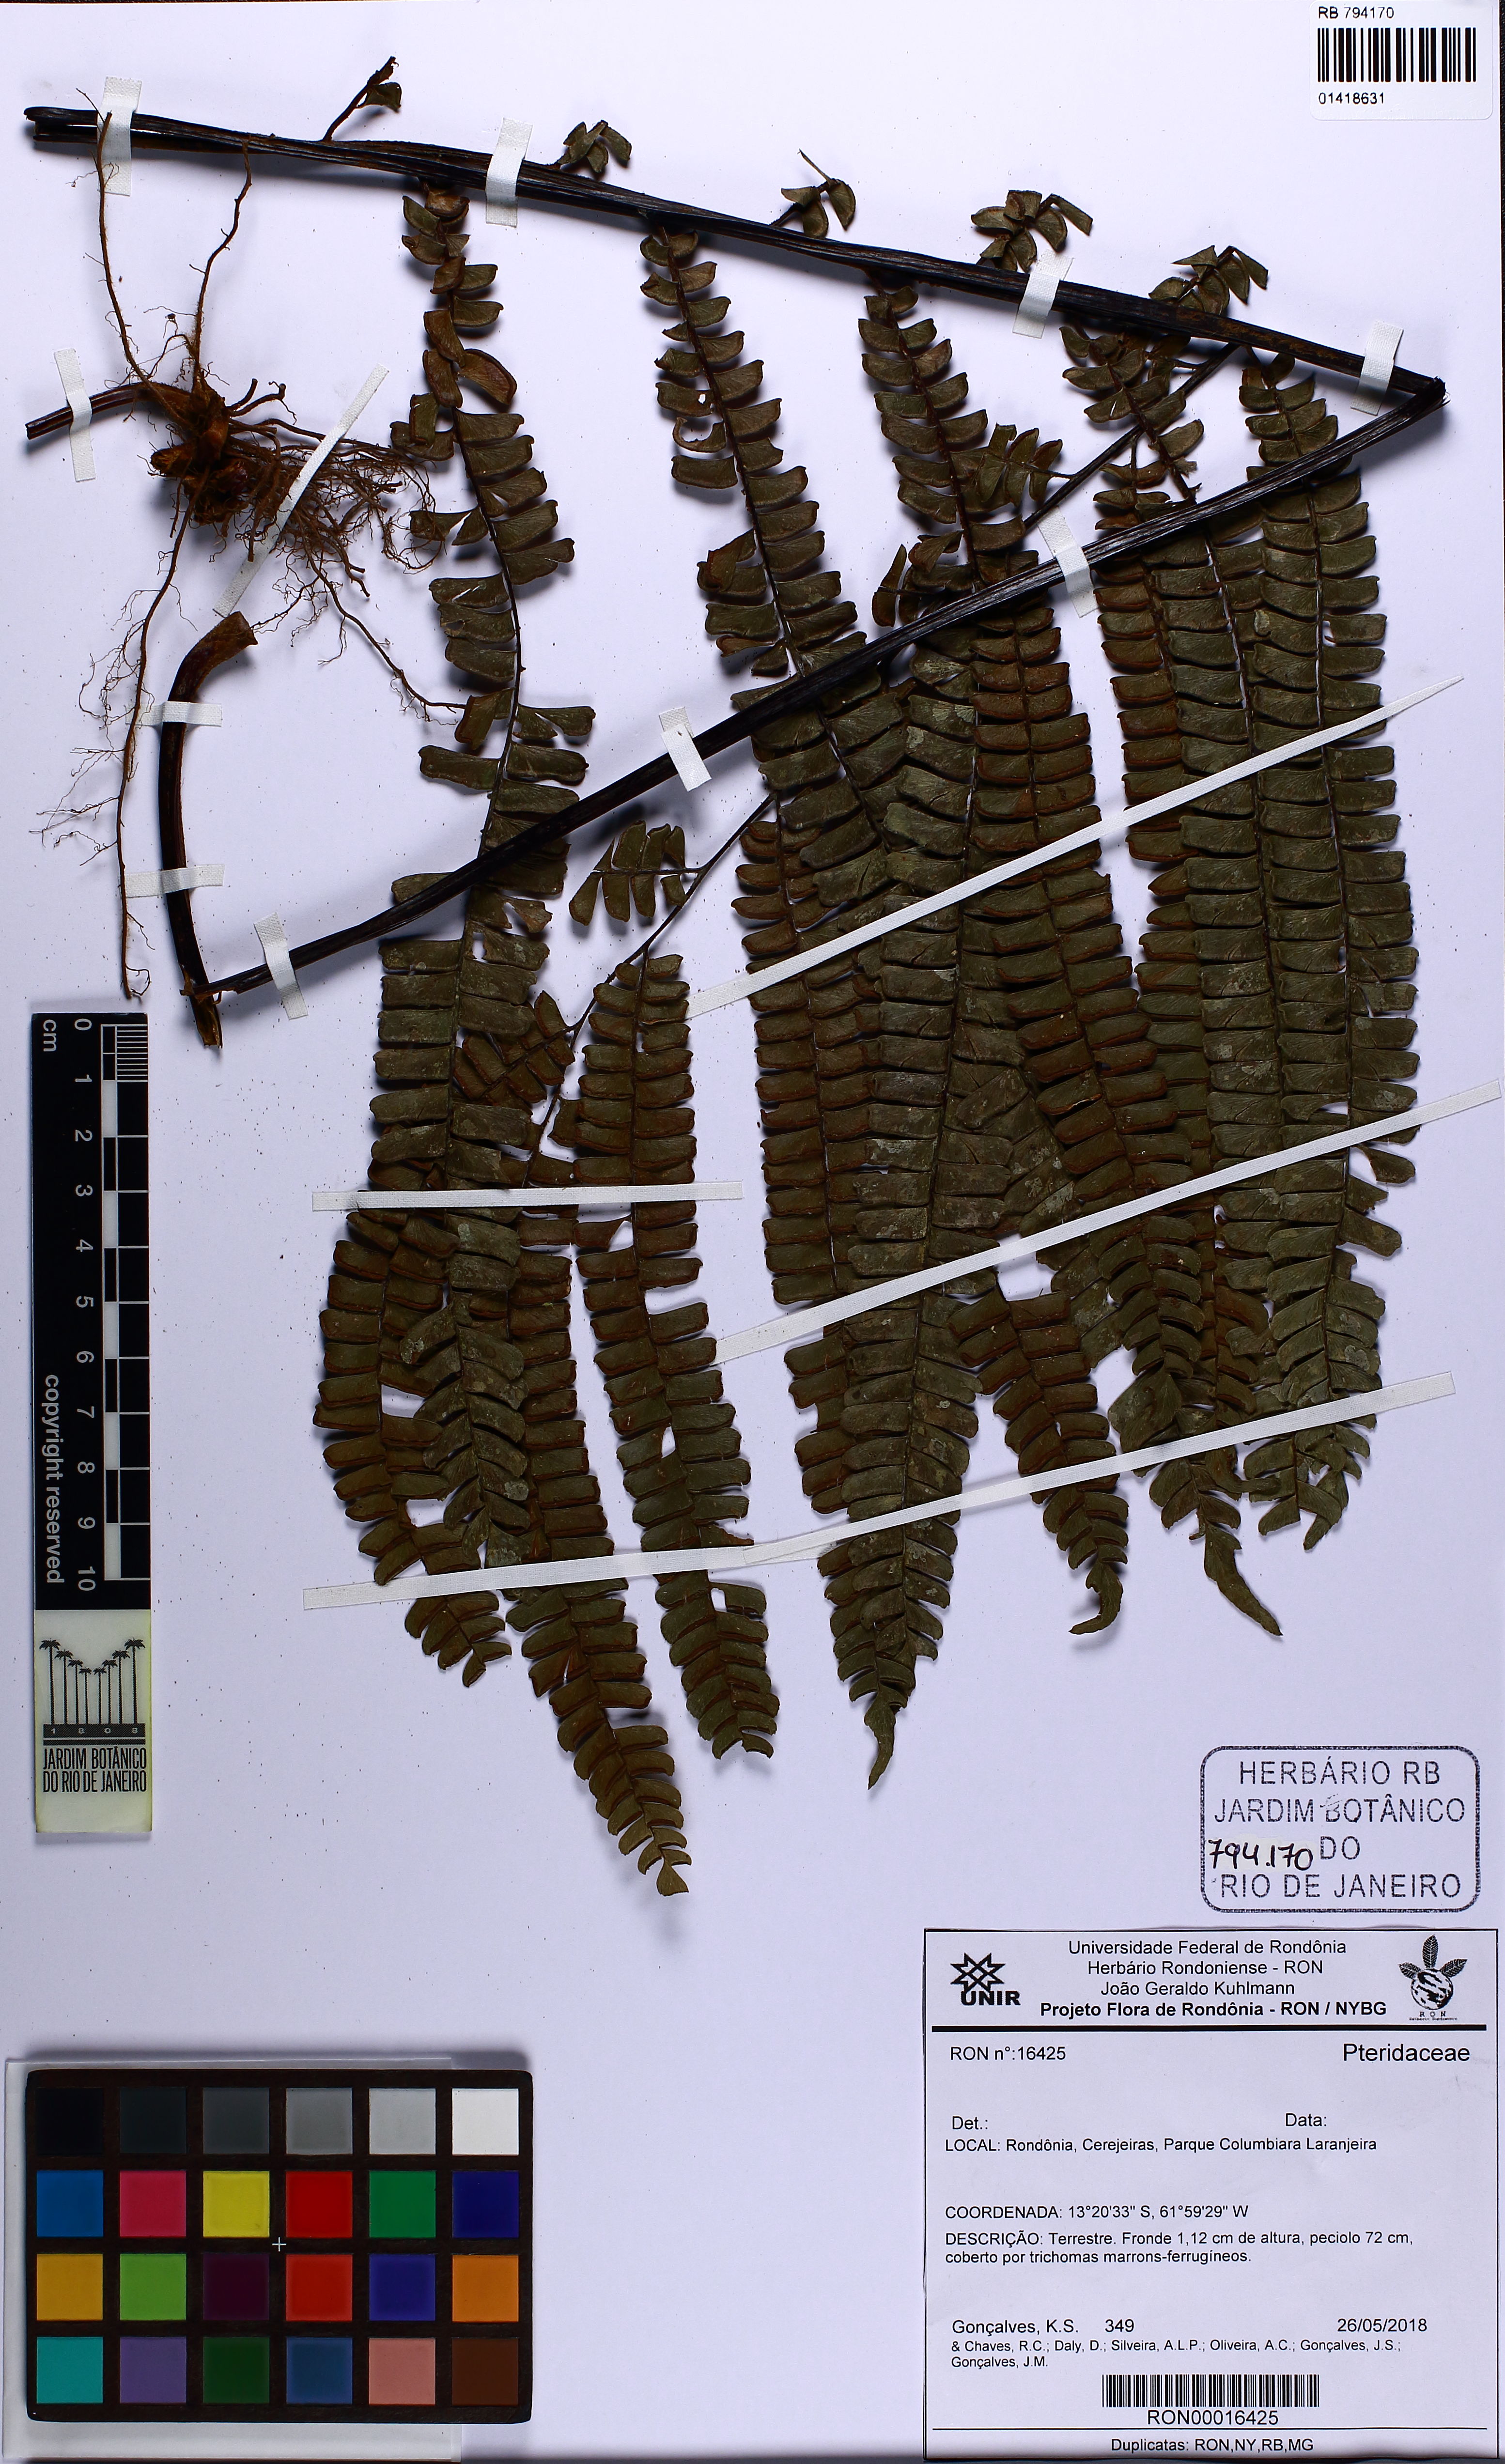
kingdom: Plantae
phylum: Tracheophyta
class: Polypodiopsida
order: Polypodiales
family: Pteridaceae
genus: Adiantum
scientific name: Adiantum
